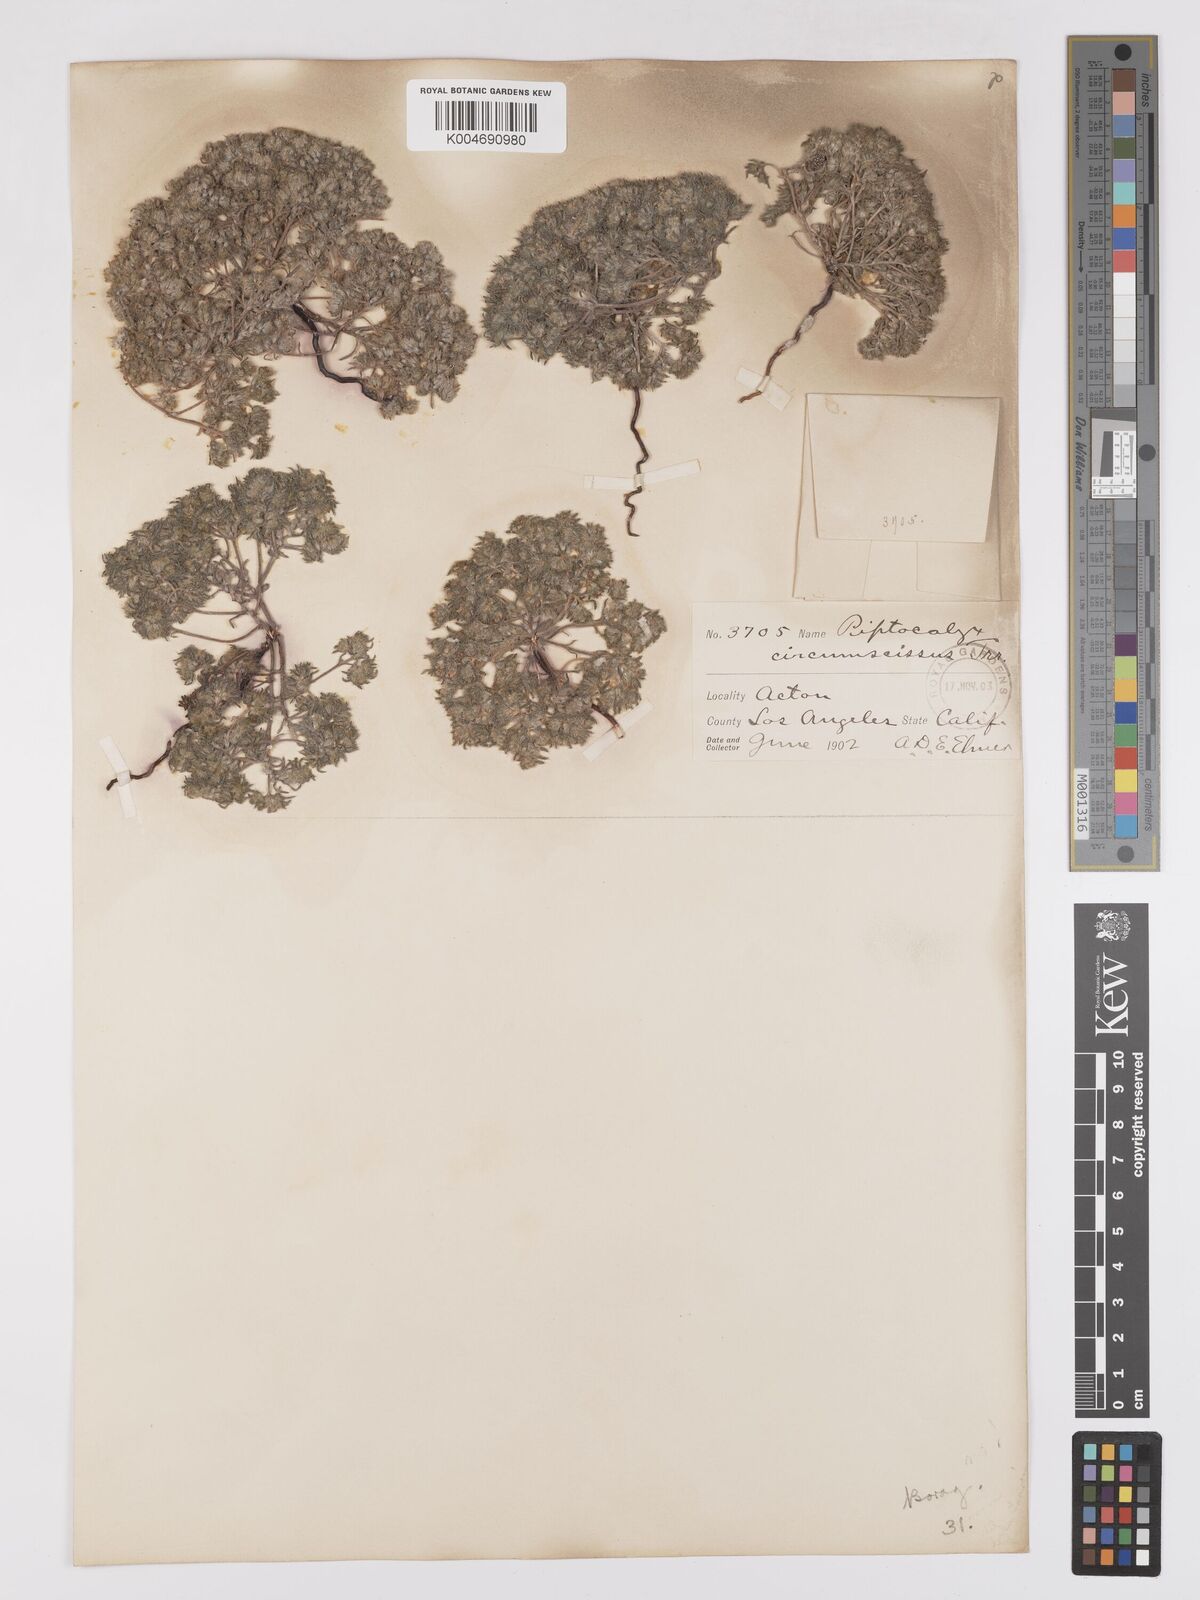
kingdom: Plantae
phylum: Tracheophyta
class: Magnoliopsida
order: Boraginales
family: Boraginaceae
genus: Greeneocharis
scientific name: Greeneocharis circumscissa
